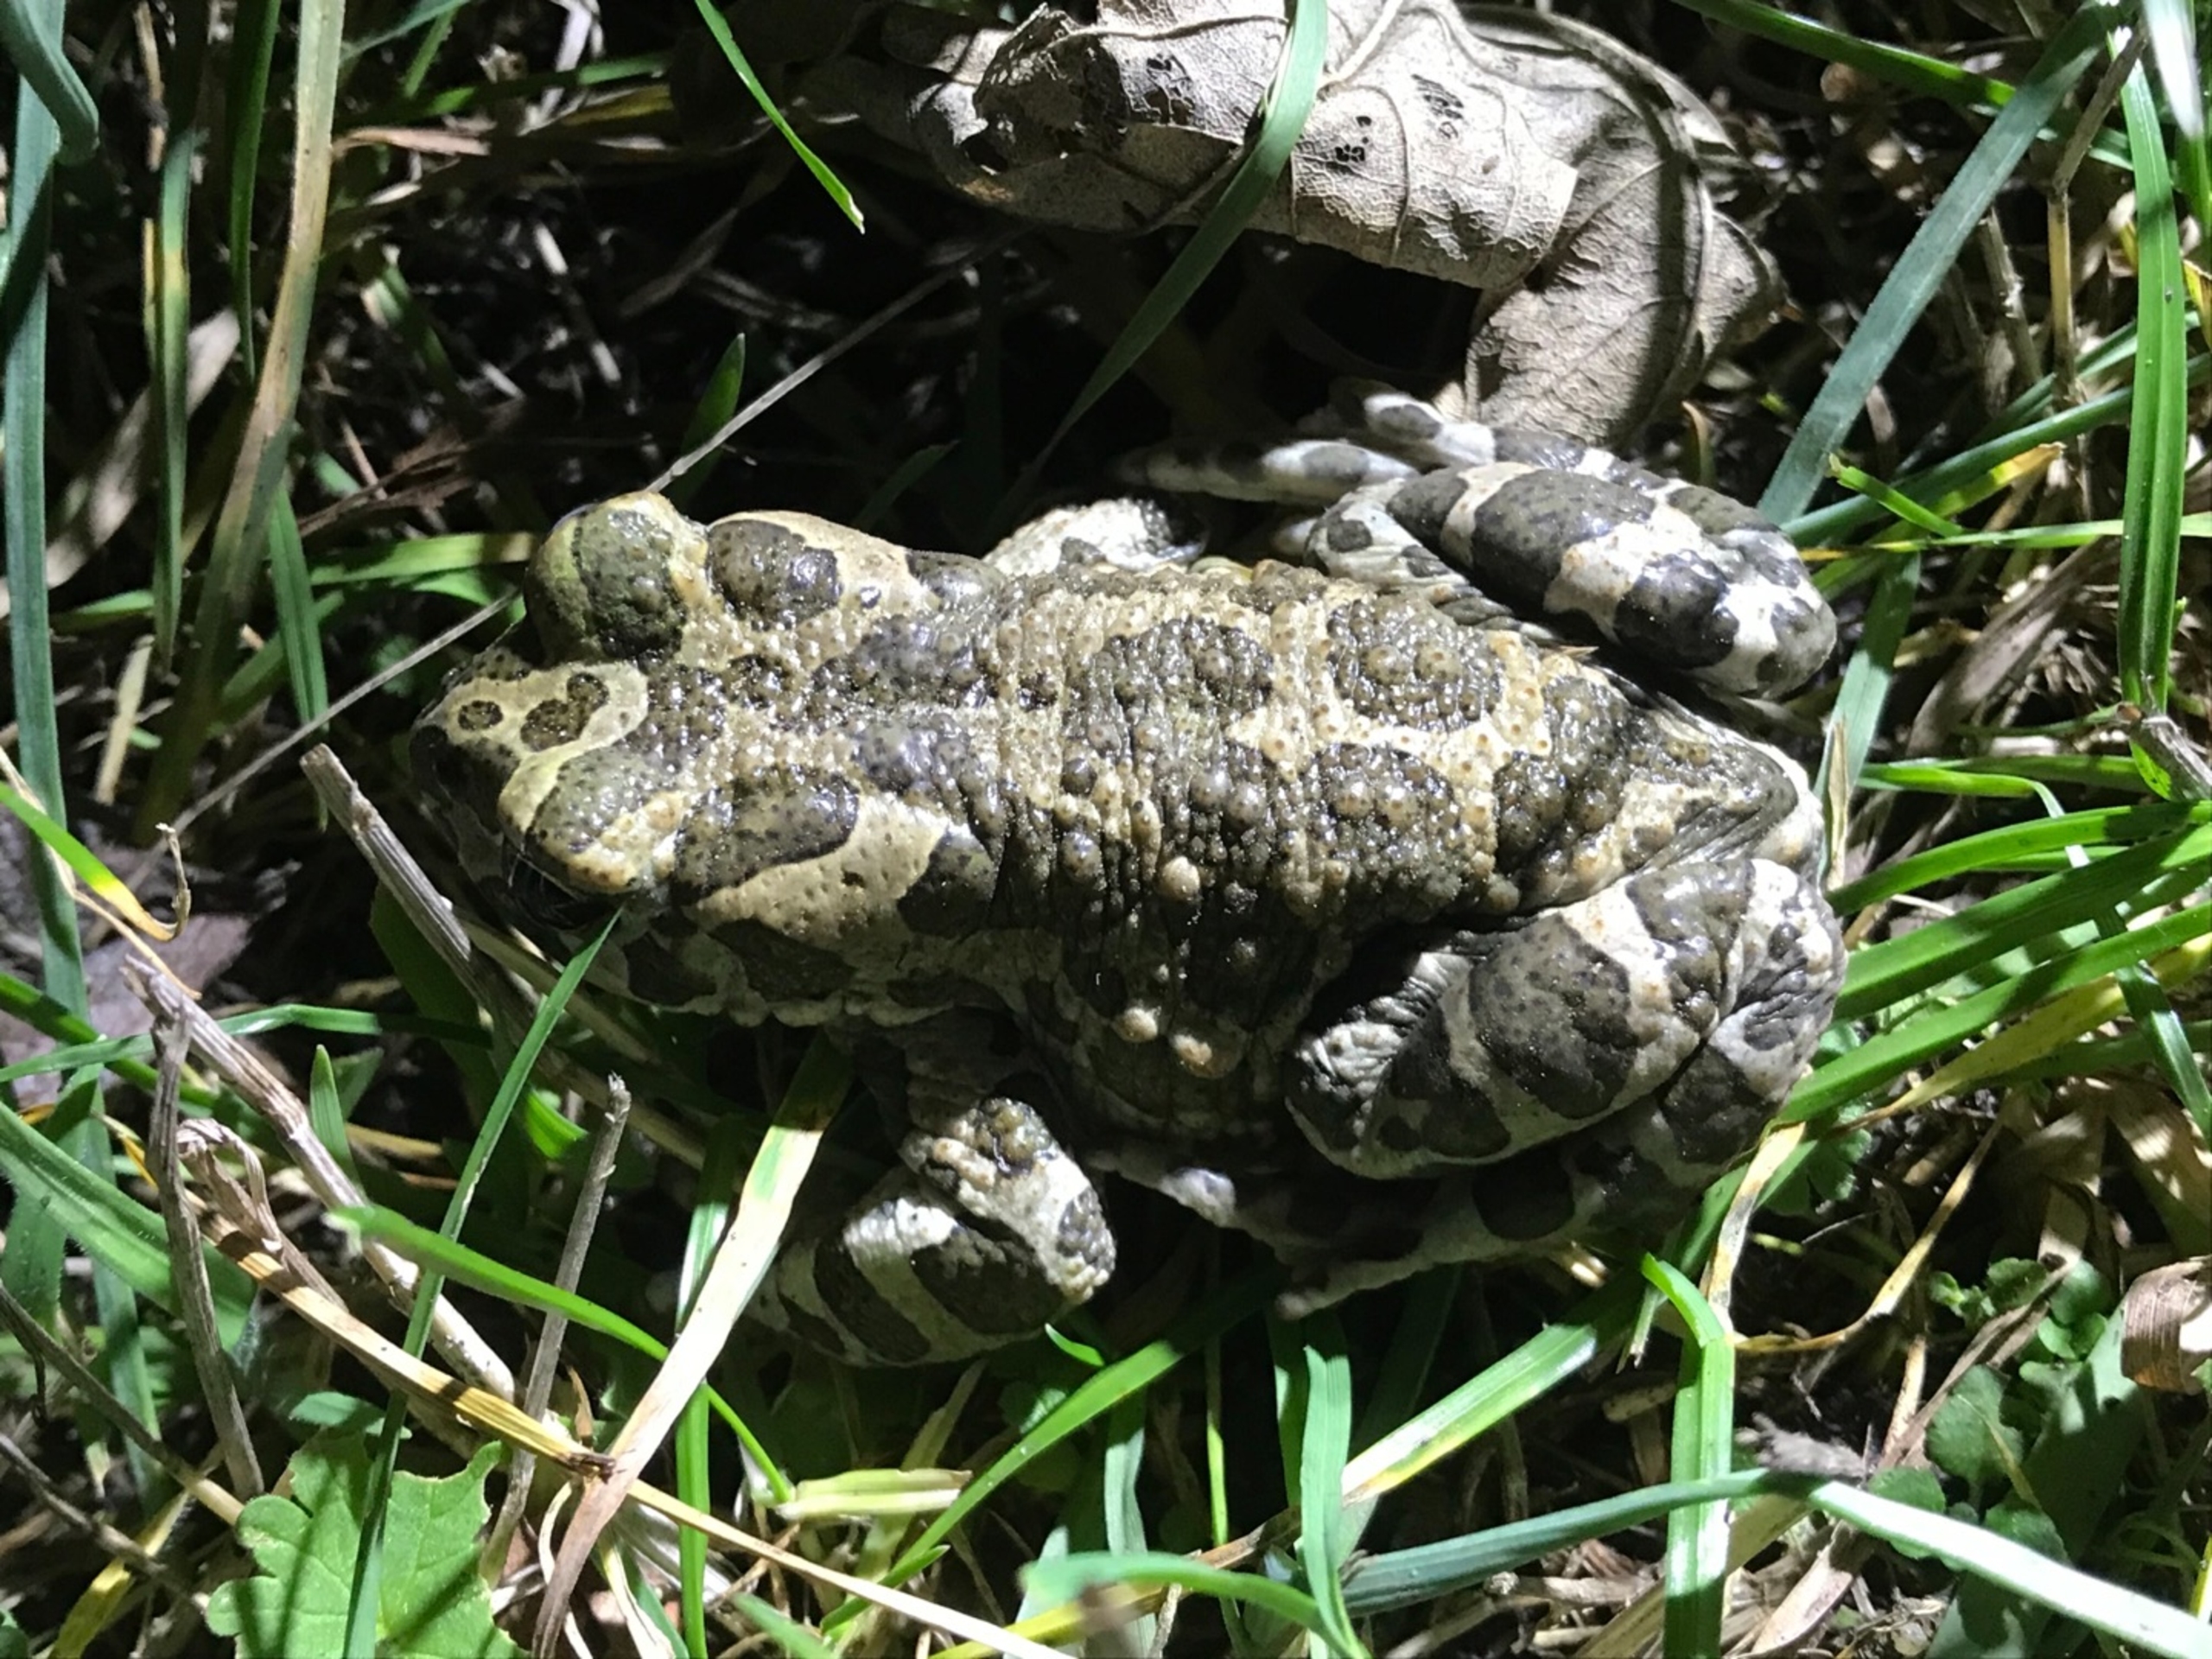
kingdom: Animalia
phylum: Chordata
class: Amphibia
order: Anura
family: Bufonidae
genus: Bufotes
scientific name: Bufotes viridis
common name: Grønbroget tudse
